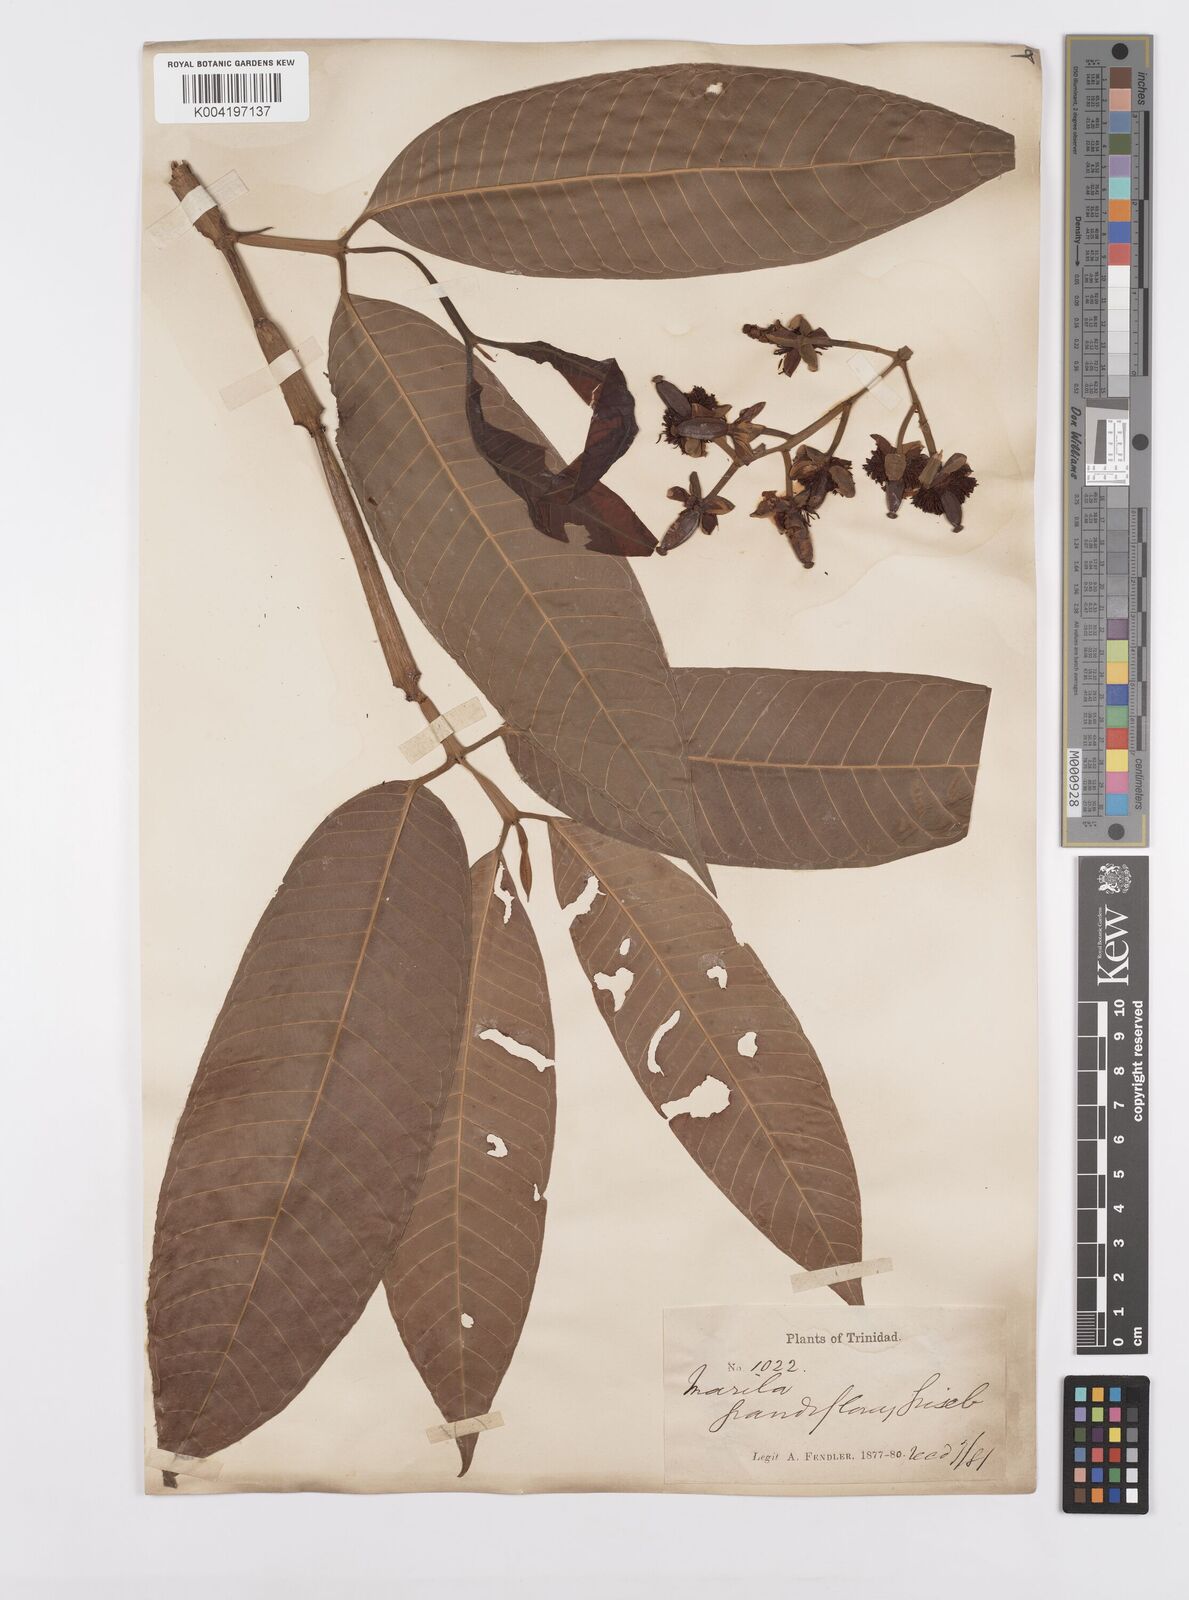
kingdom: Plantae
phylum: Tracheophyta
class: Magnoliopsida
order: Malpighiales
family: Calophyllaceae
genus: Marila
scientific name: Marila grandiflora
